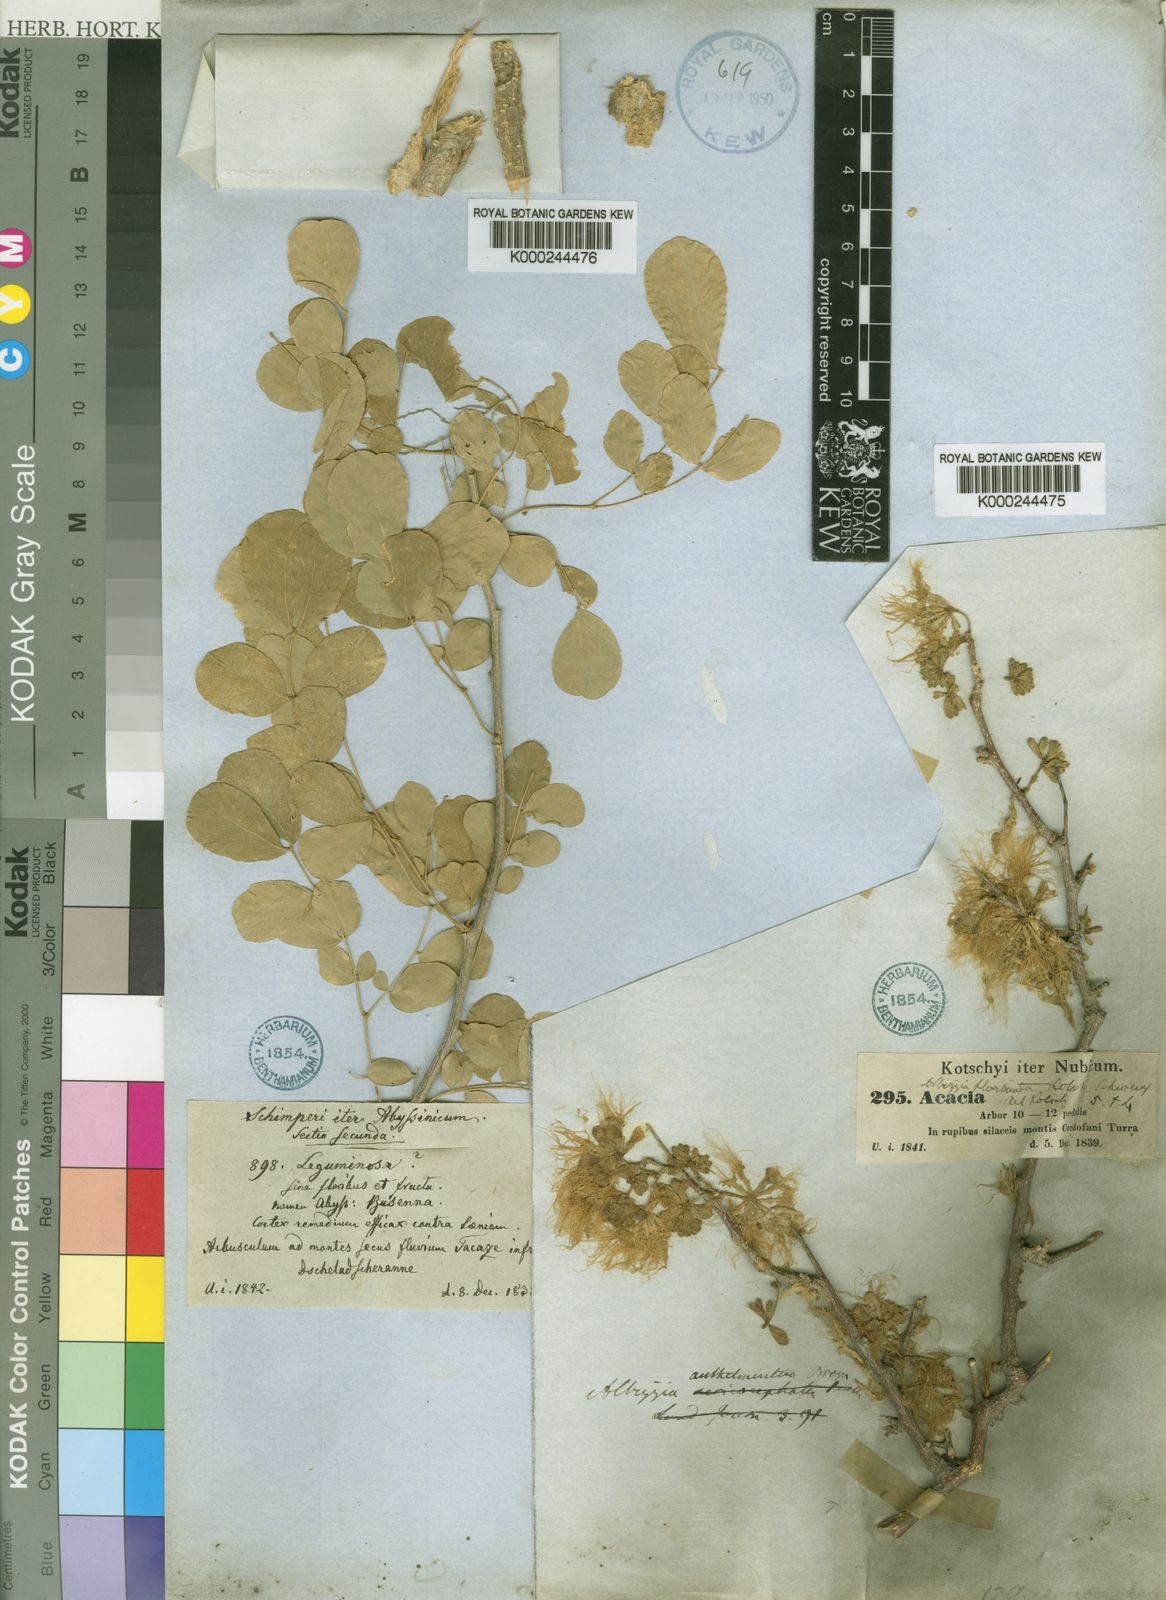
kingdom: Plantae
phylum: Tracheophyta
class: Magnoliopsida
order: Fabales
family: Fabaceae
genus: Albizia
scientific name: Albizia anthelmintica
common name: Worm-bark false-thorn
